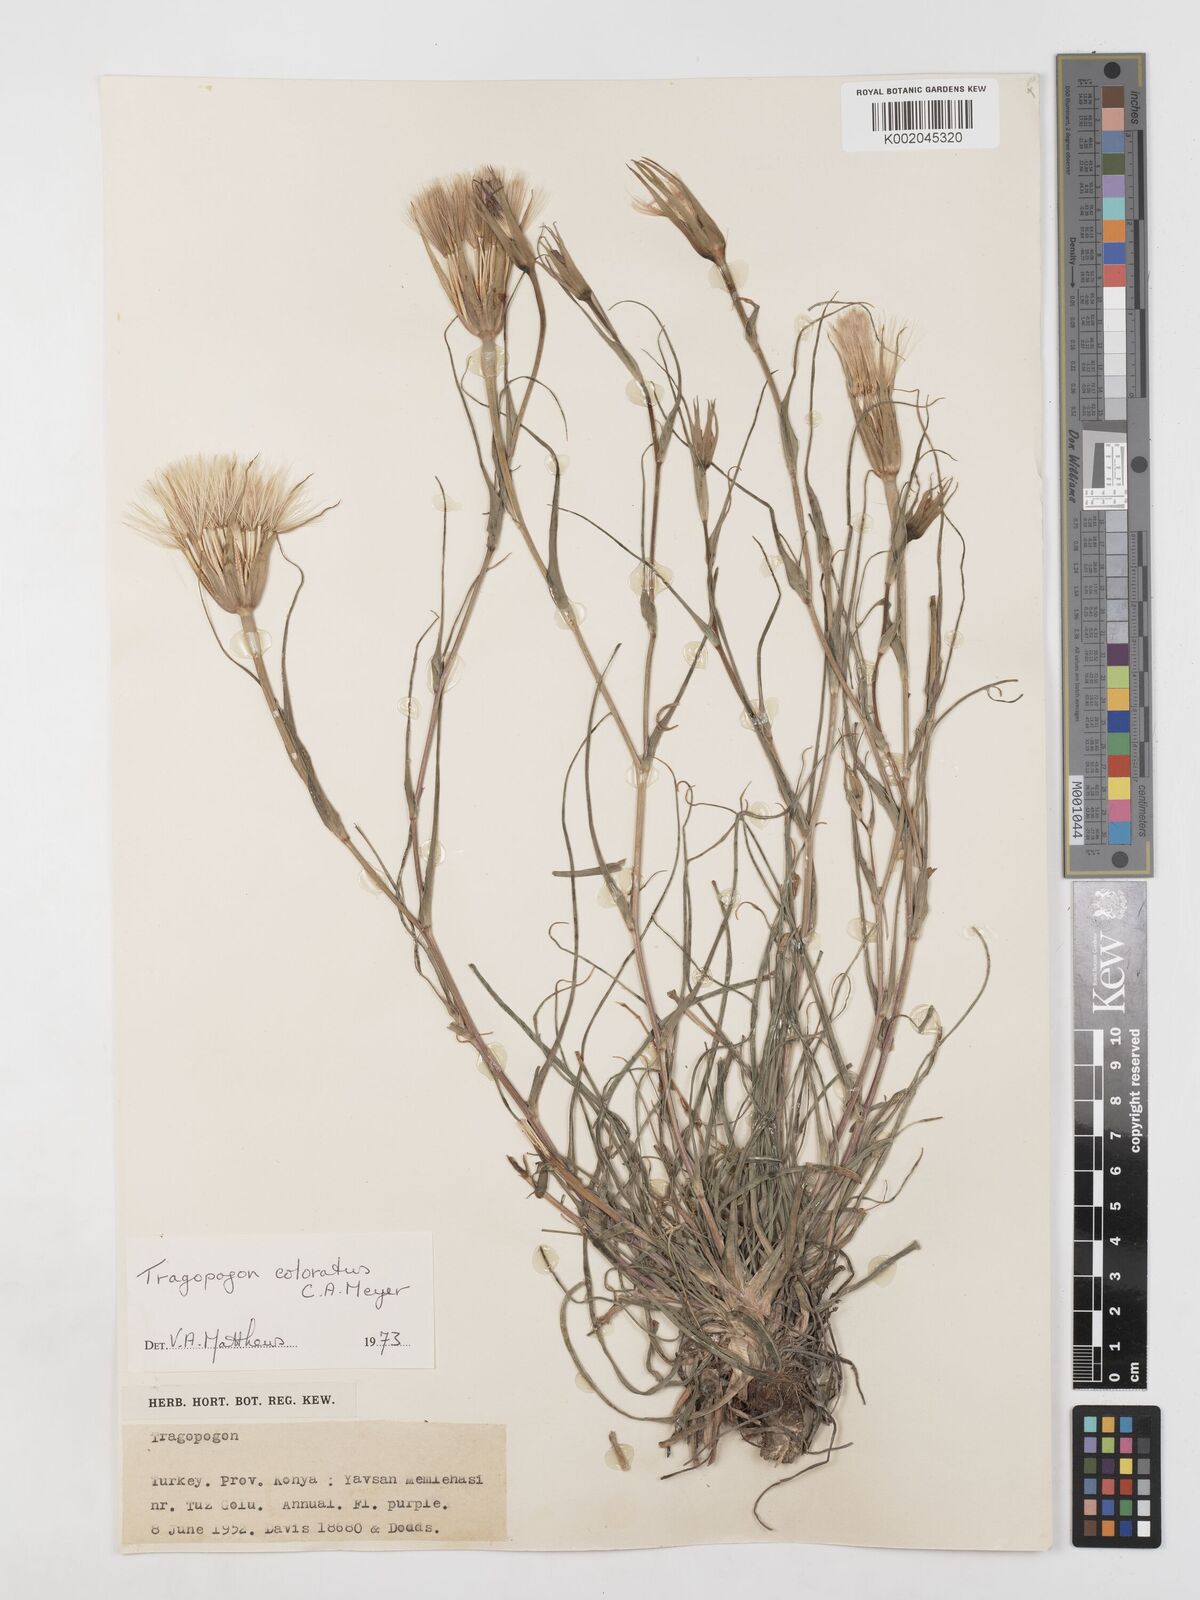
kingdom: Plantae
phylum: Tracheophyta
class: Magnoliopsida
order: Asterales
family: Asteraceae
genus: Tragopogon
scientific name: Tragopogon coloratus
